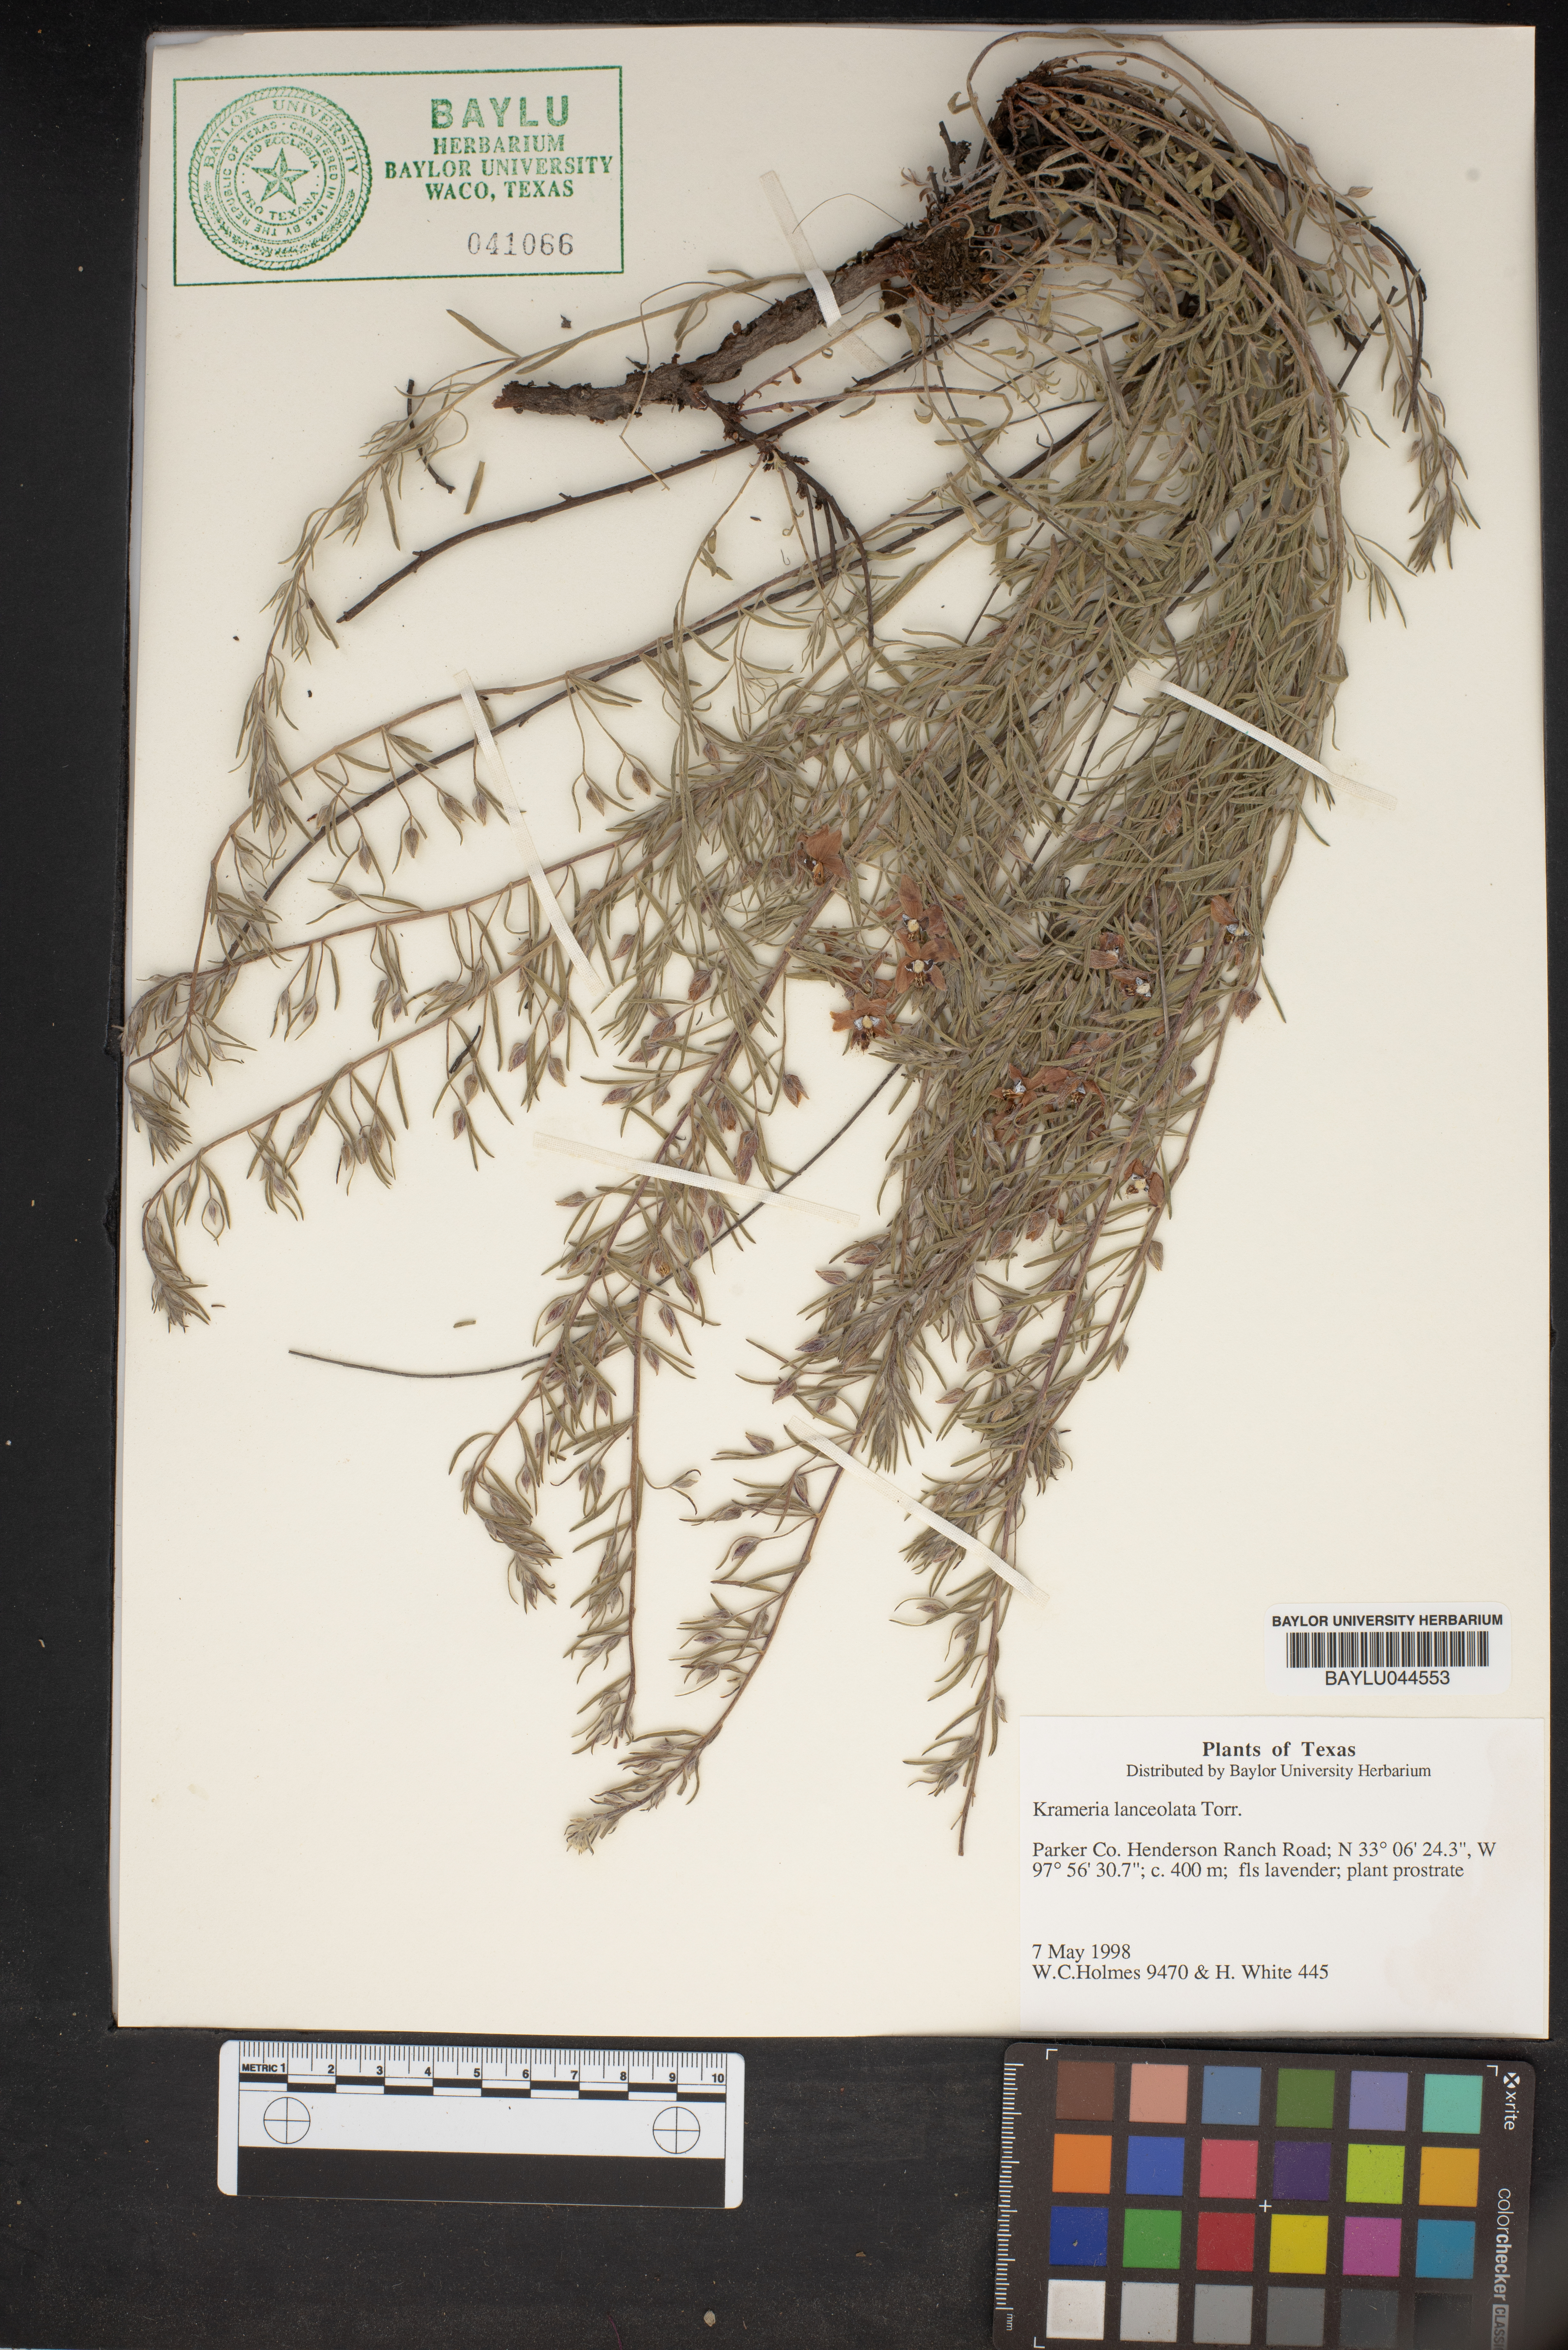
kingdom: Plantae
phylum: Tracheophyta
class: Magnoliopsida
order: Zygophyllales
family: Krameriaceae
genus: Krameria
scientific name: Krameria lanceolata
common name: Ratany
